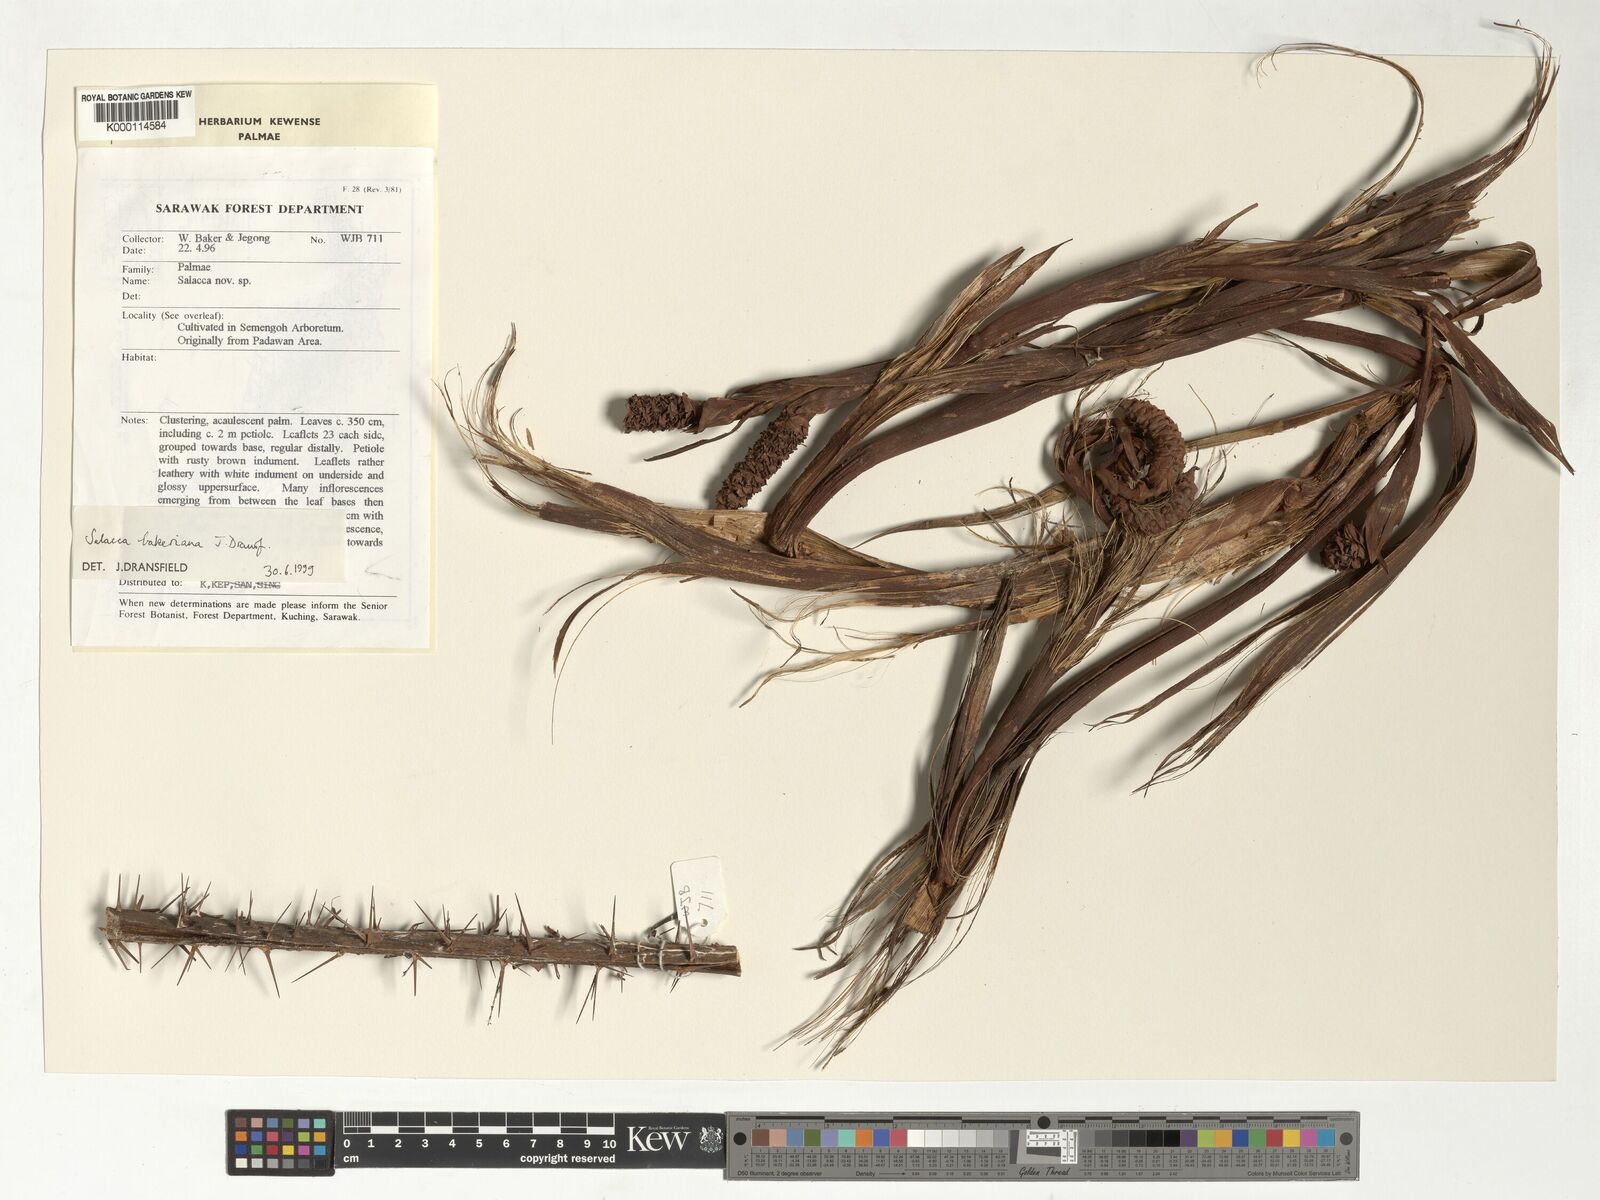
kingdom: Plantae
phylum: Tracheophyta
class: Liliopsida
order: Arecales
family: Arecaceae
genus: Salacca
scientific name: Salacca bakeriana
